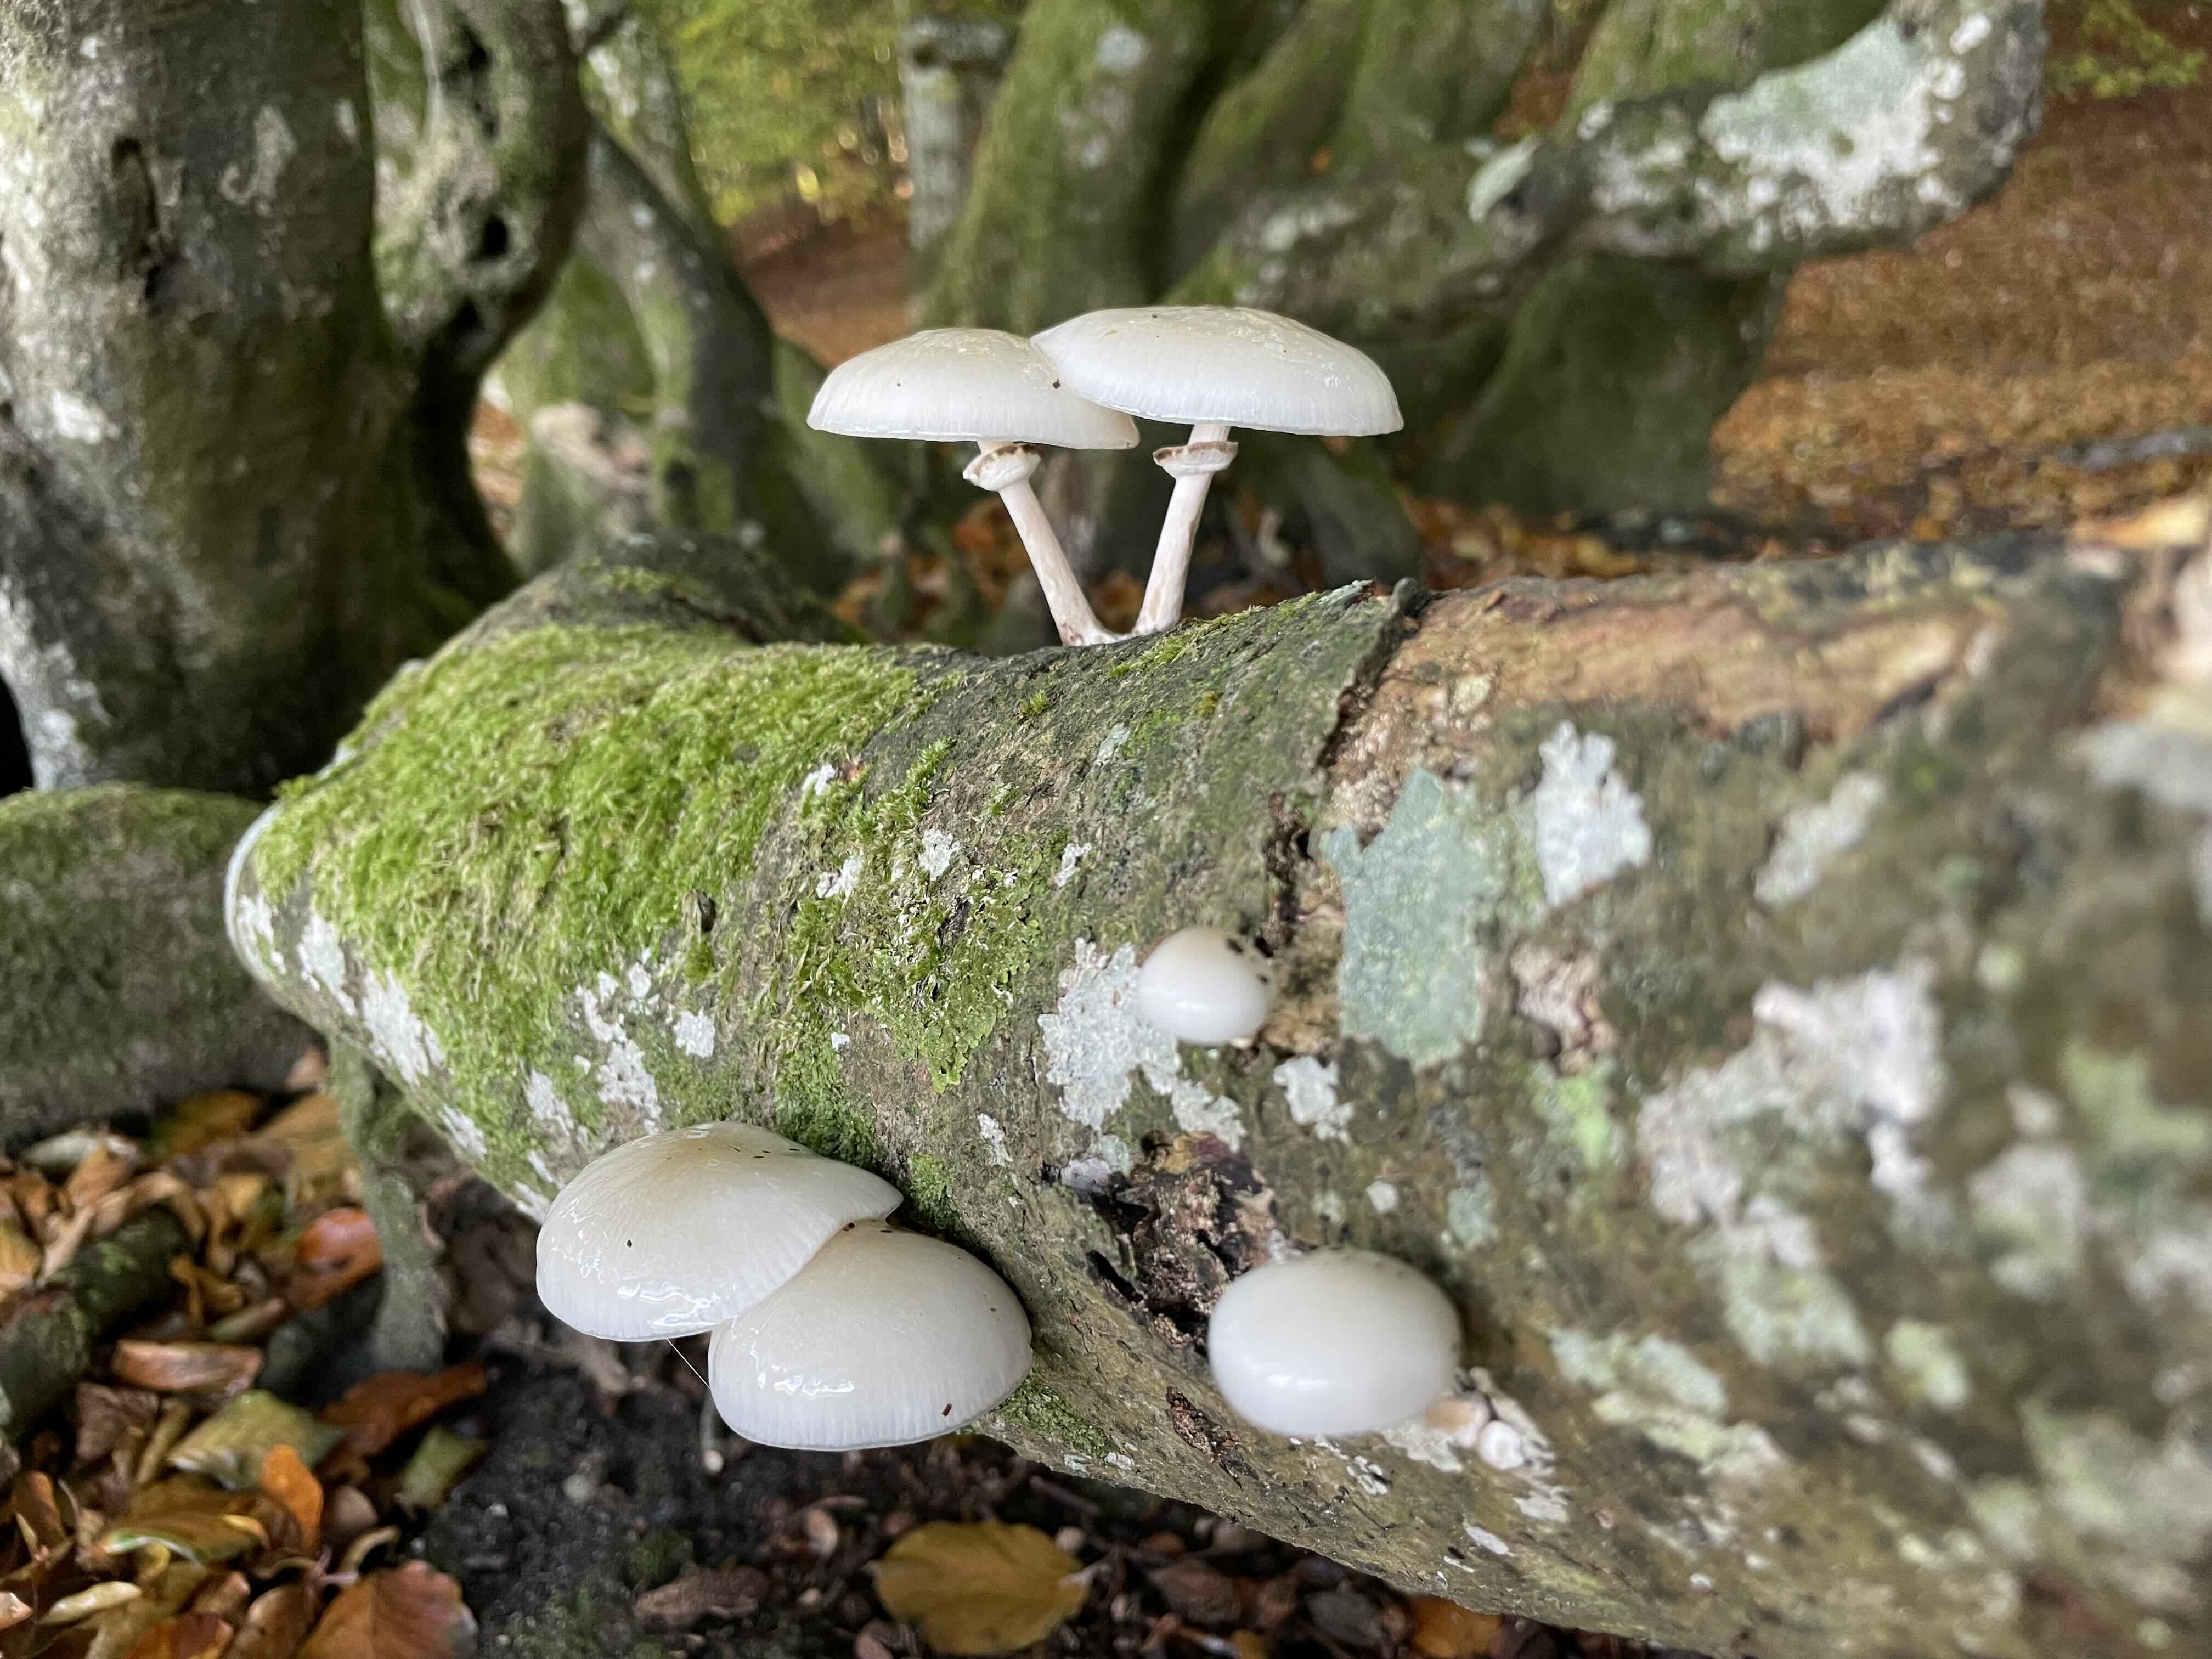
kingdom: Fungi
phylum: Basidiomycota
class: Agaricomycetes
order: Agaricales
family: Physalacriaceae
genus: Mucidula
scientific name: Mucidula mucida
